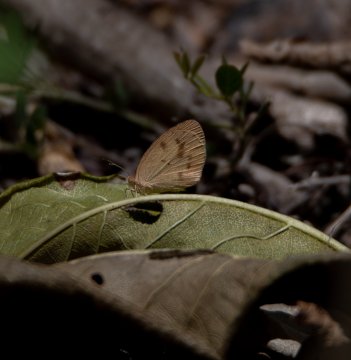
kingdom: Animalia
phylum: Arthropoda
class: Insecta
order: Lepidoptera
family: Pieridae
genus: Eurema
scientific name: Eurema daira
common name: Barred Yellow
